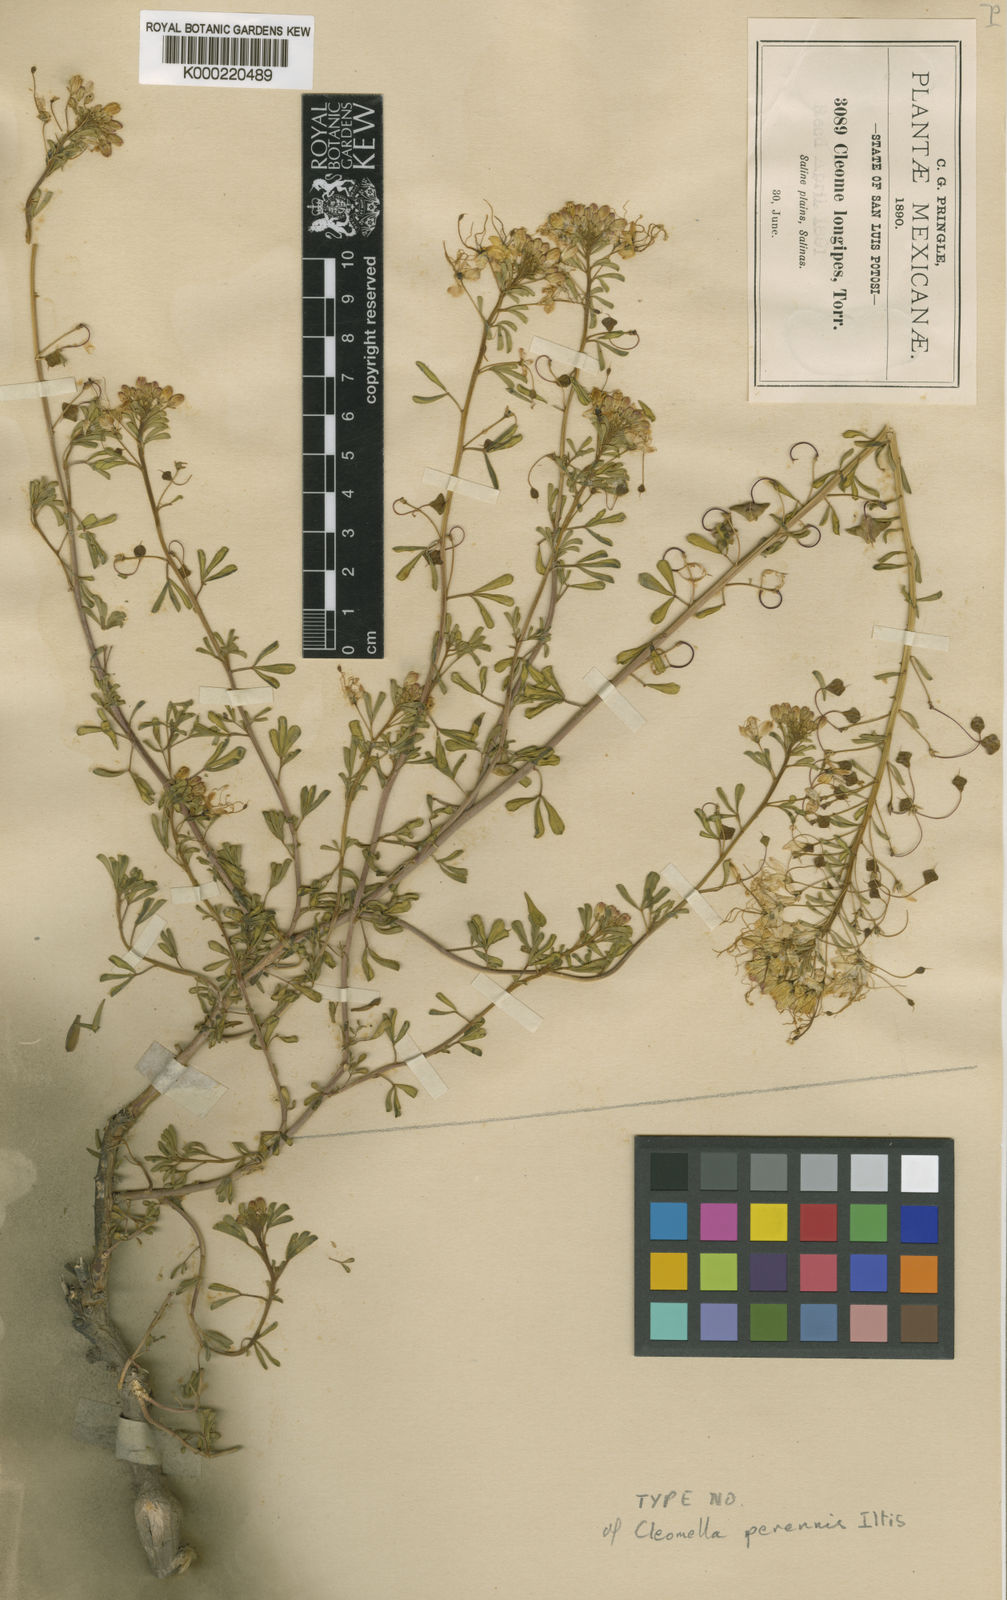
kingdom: Plantae
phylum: Tracheophyta
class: Magnoliopsida
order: Brassicales
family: Cleomaceae
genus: Cleomella
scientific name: Cleomella perennis
